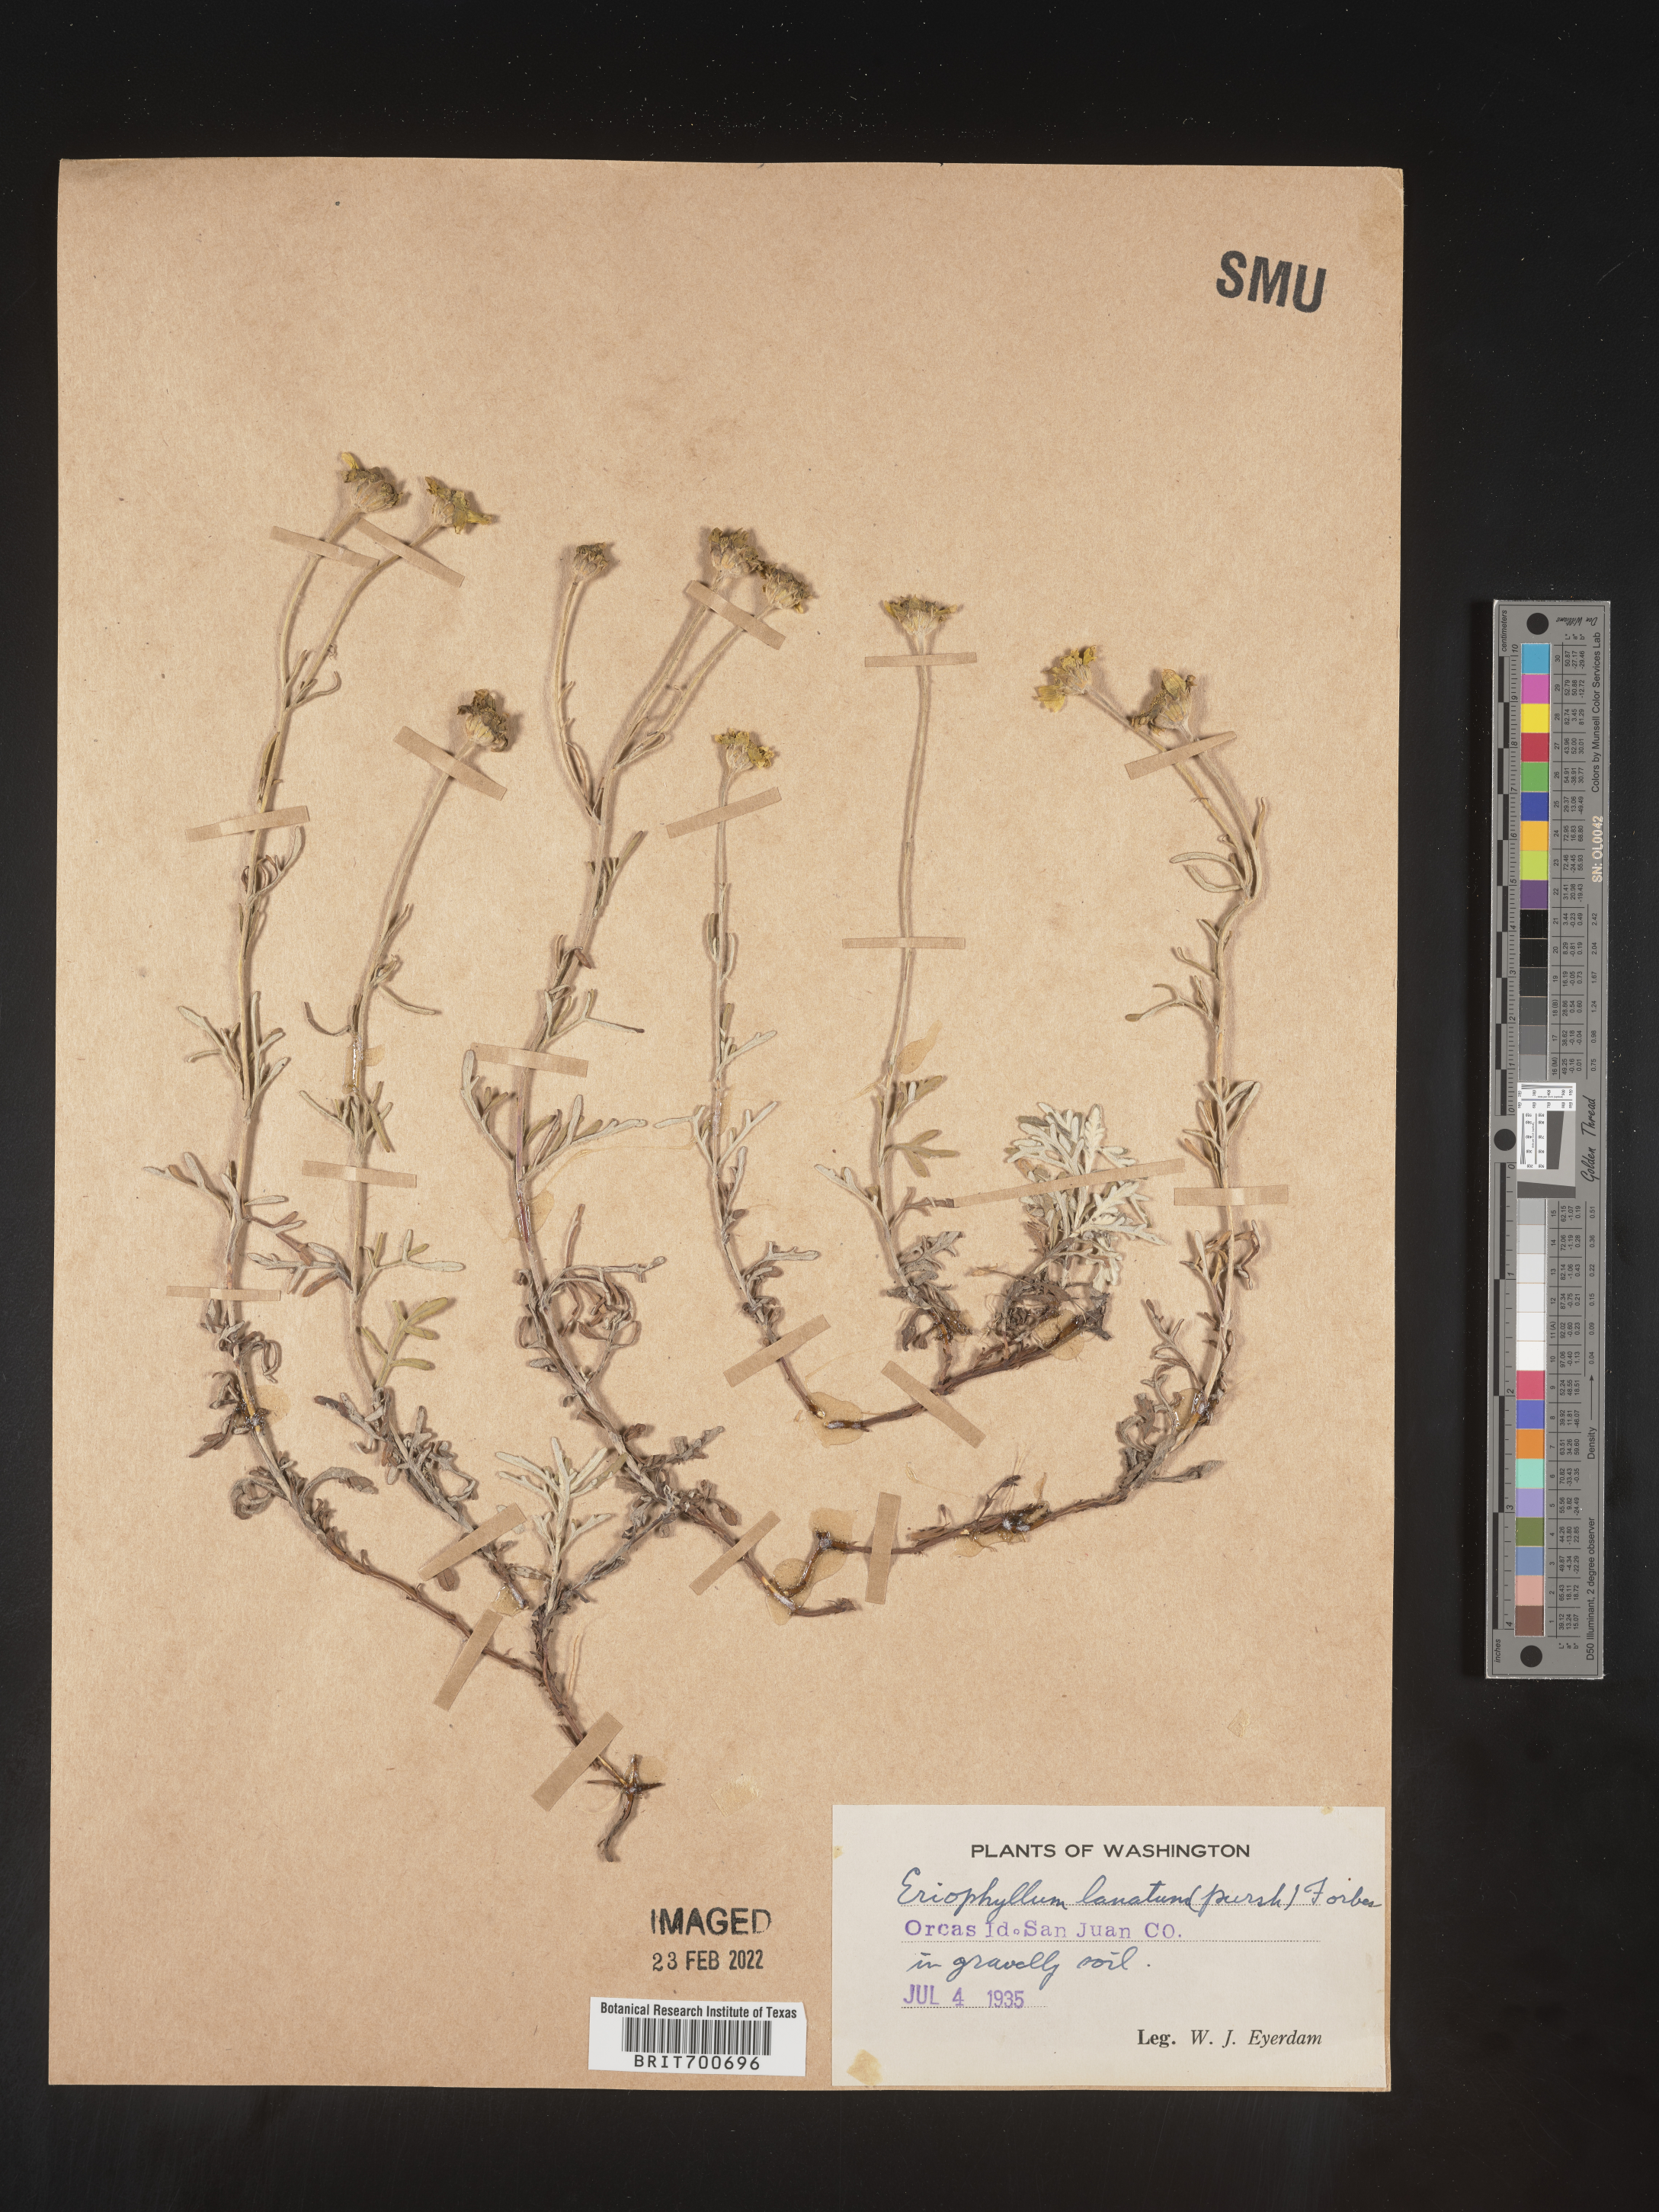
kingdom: Plantae
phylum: Tracheophyta
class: Magnoliopsida
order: Asterales
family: Asteraceae
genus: Eriophyllum
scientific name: Eriophyllum lanatum
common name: Common woolly-sunflower
